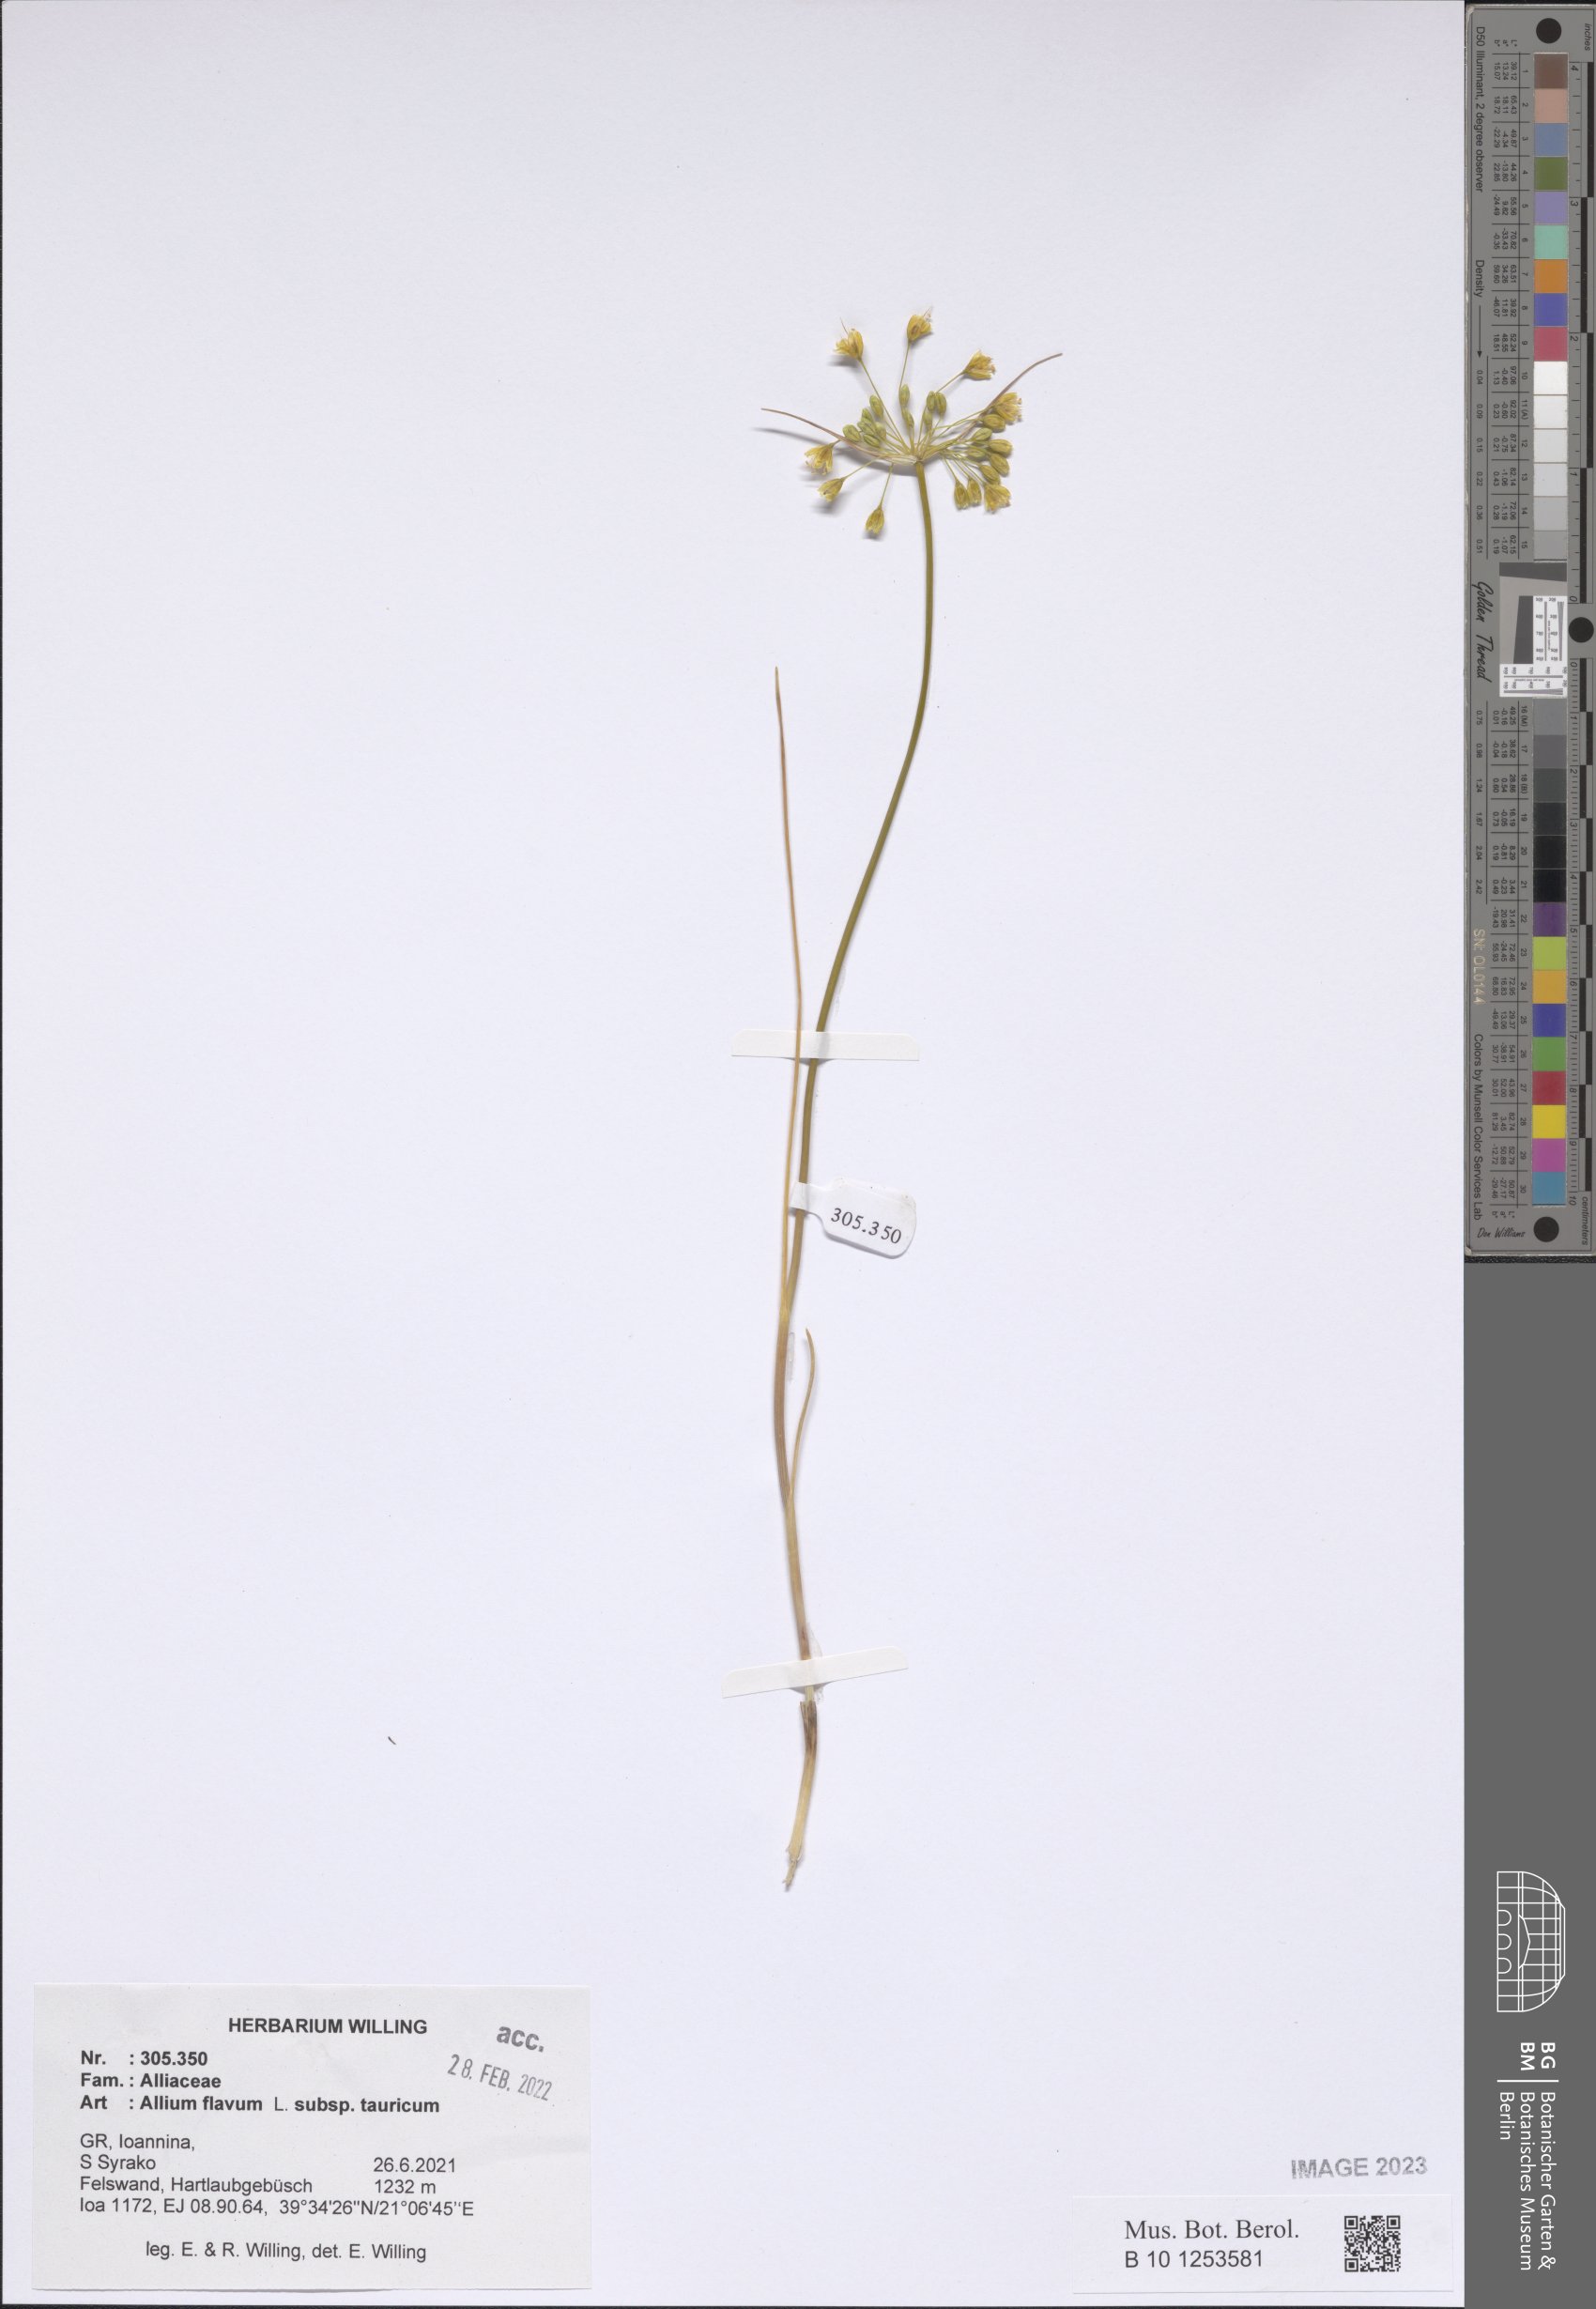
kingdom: Plantae
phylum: Tracheophyta
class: Liliopsida
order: Asparagales
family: Amaryllidaceae
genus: Allium
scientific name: Allium flavum
